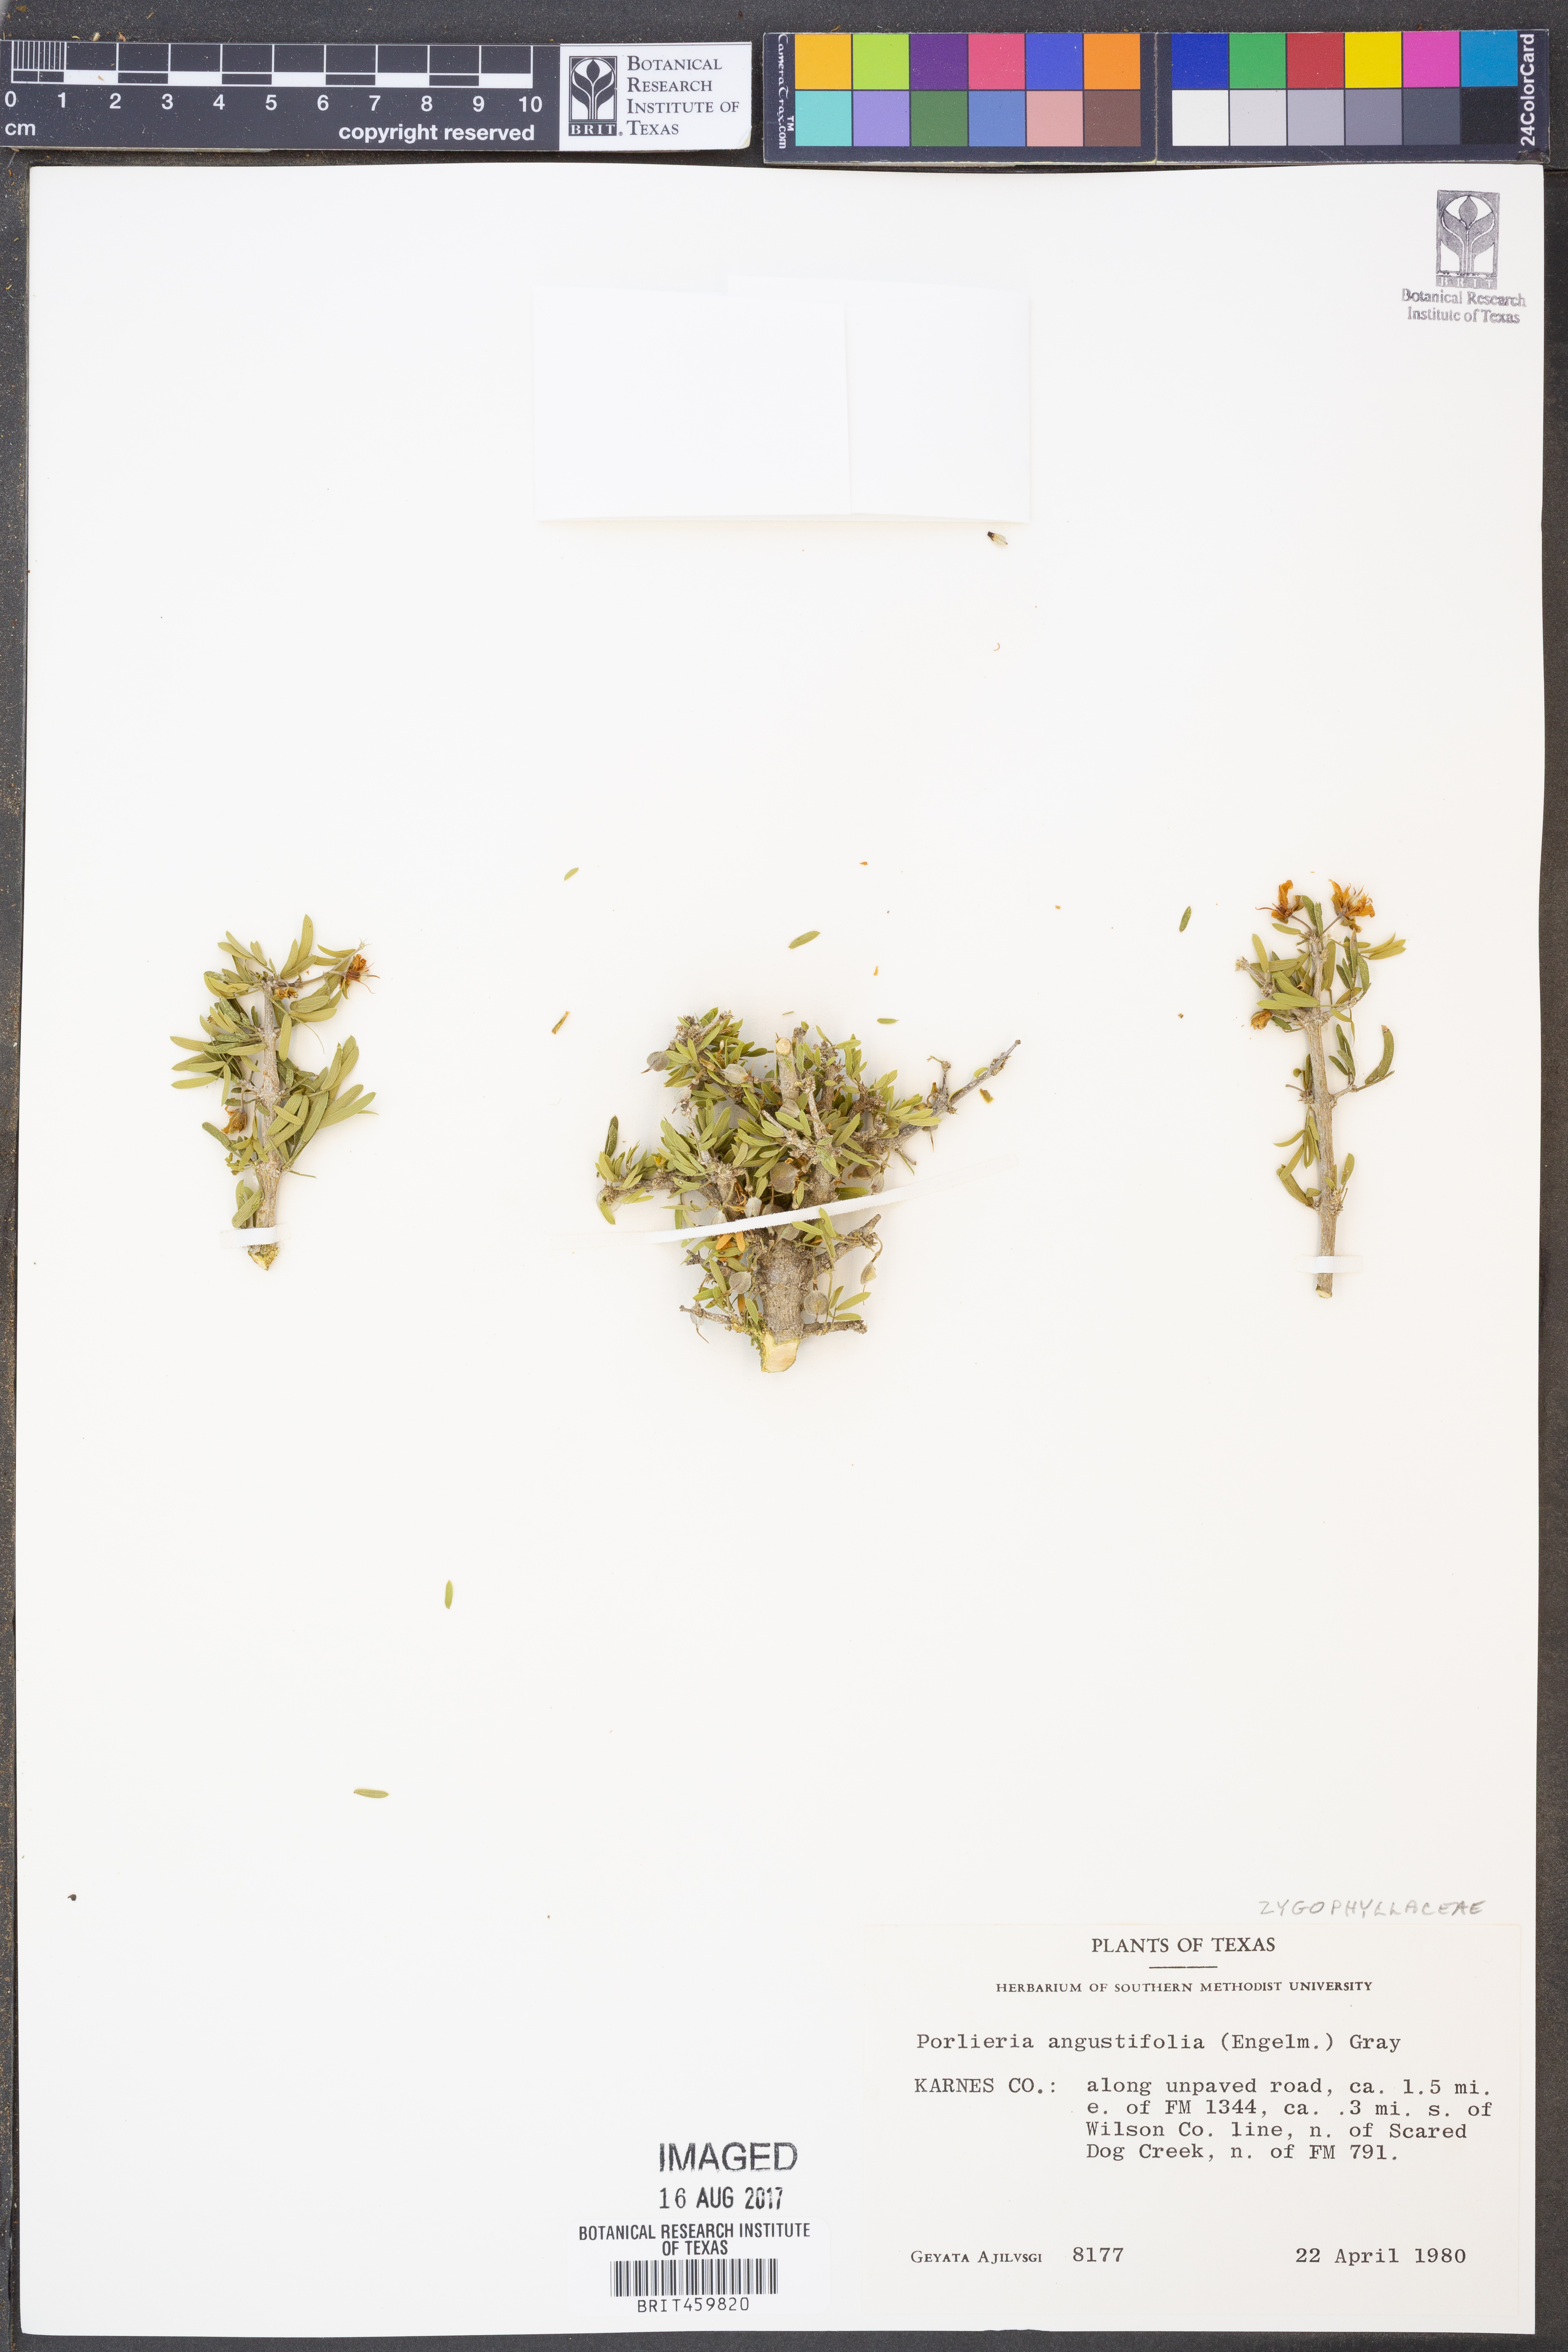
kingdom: Plantae
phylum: Tracheophyta
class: Magnoliopsida
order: Zygophyllales
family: Zygophyllaceae
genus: Porlieria
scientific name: Porlieria angustifolia
